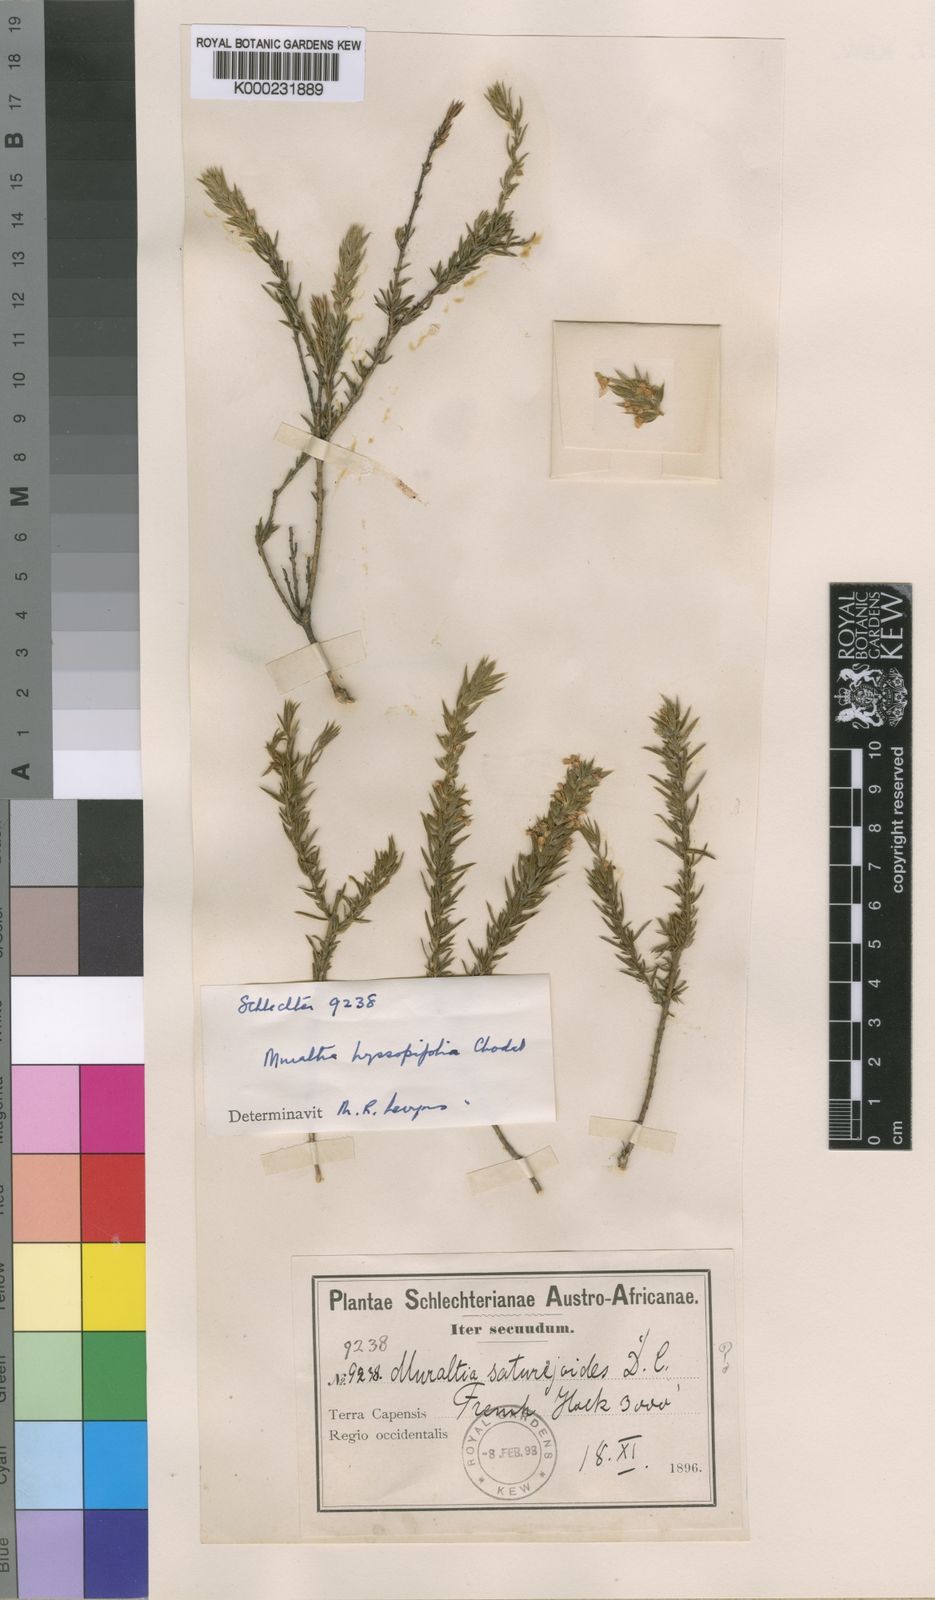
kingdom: Plantae
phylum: Tracheophyta
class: Magnoliopsida
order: Fabales
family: Polygalaceae
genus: Muraltia
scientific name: Muraltia hyssopifolia
